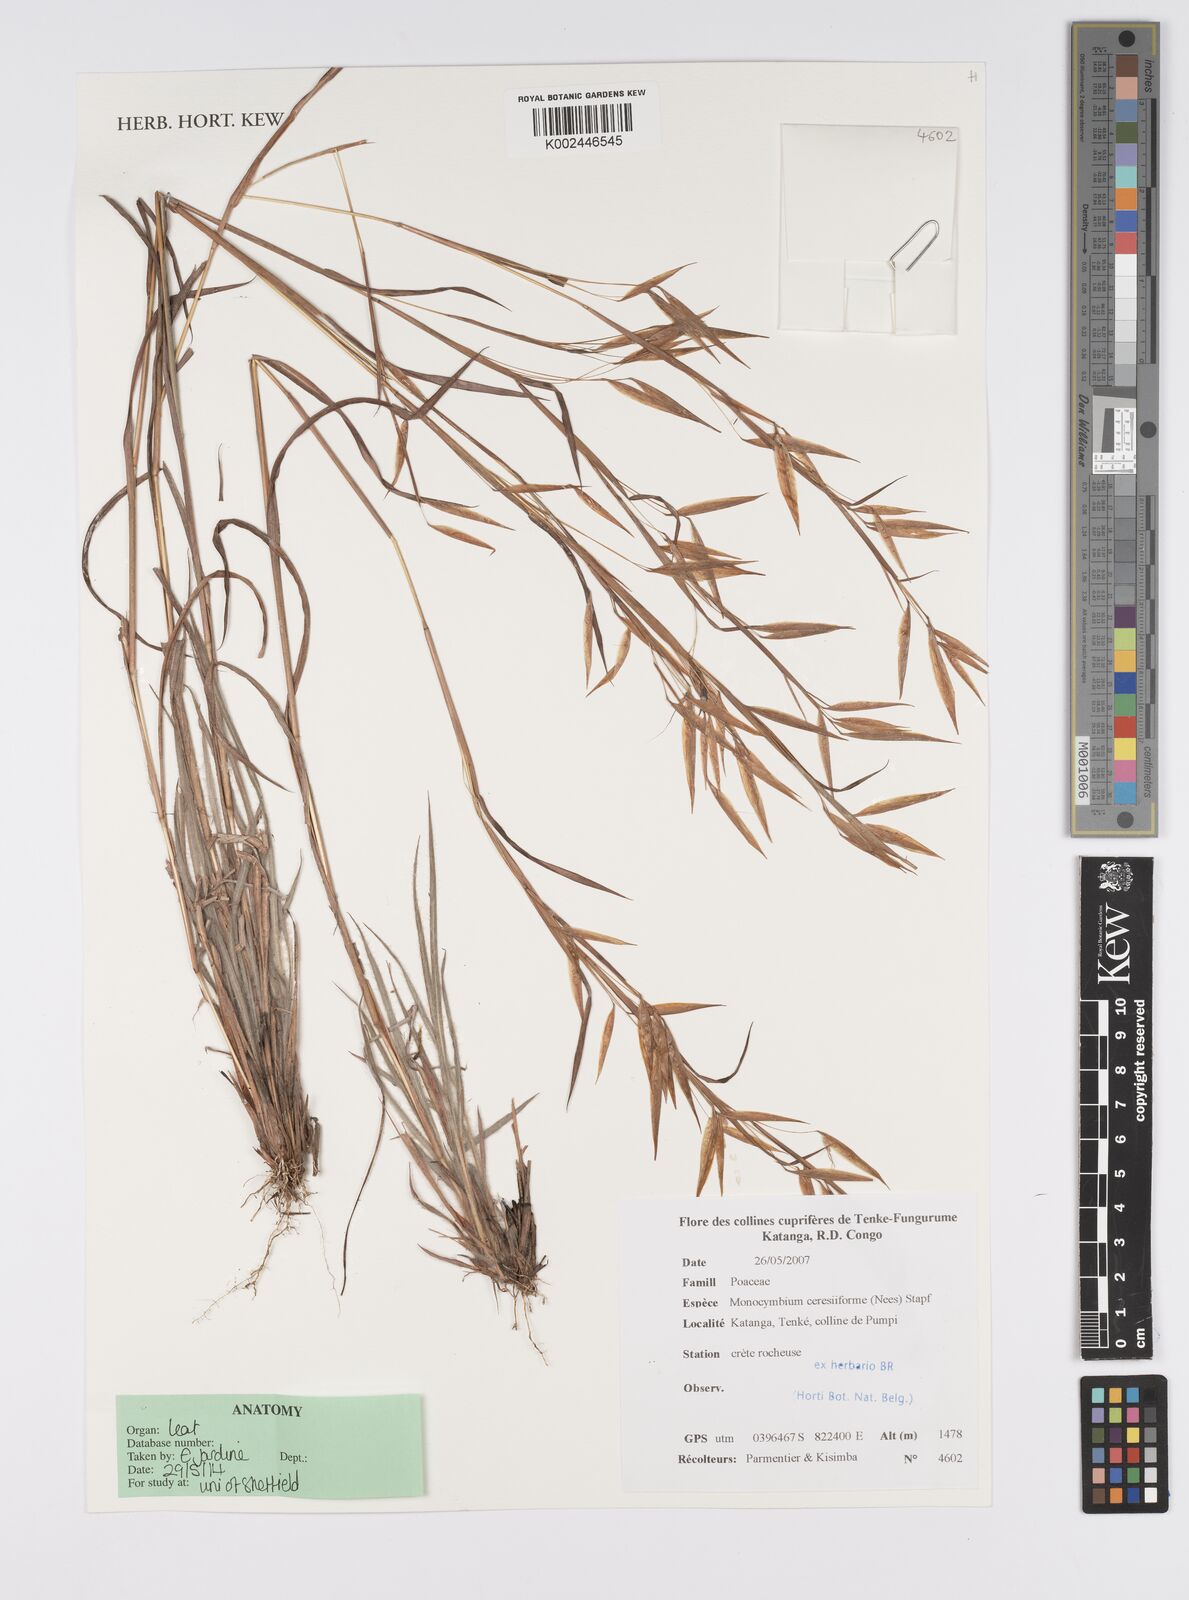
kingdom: Plantae
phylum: Tracheophyta
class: Liliopsida
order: Poales
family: Poaceae
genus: Monocymbium
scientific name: Monocymbium ceresiiforme
